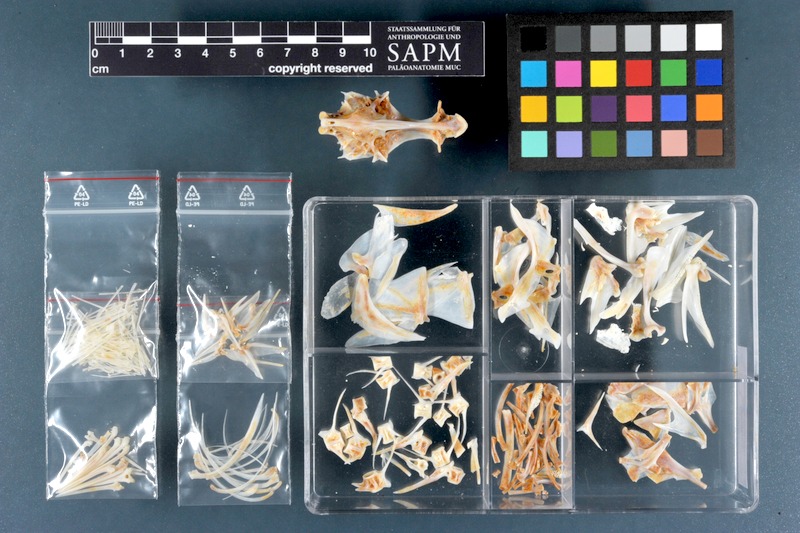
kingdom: Animalia
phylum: Chordata
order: Perciformes
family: Serranidae
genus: Epinephelus
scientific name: Epinephelus fasciatus
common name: Blacktip grouper
